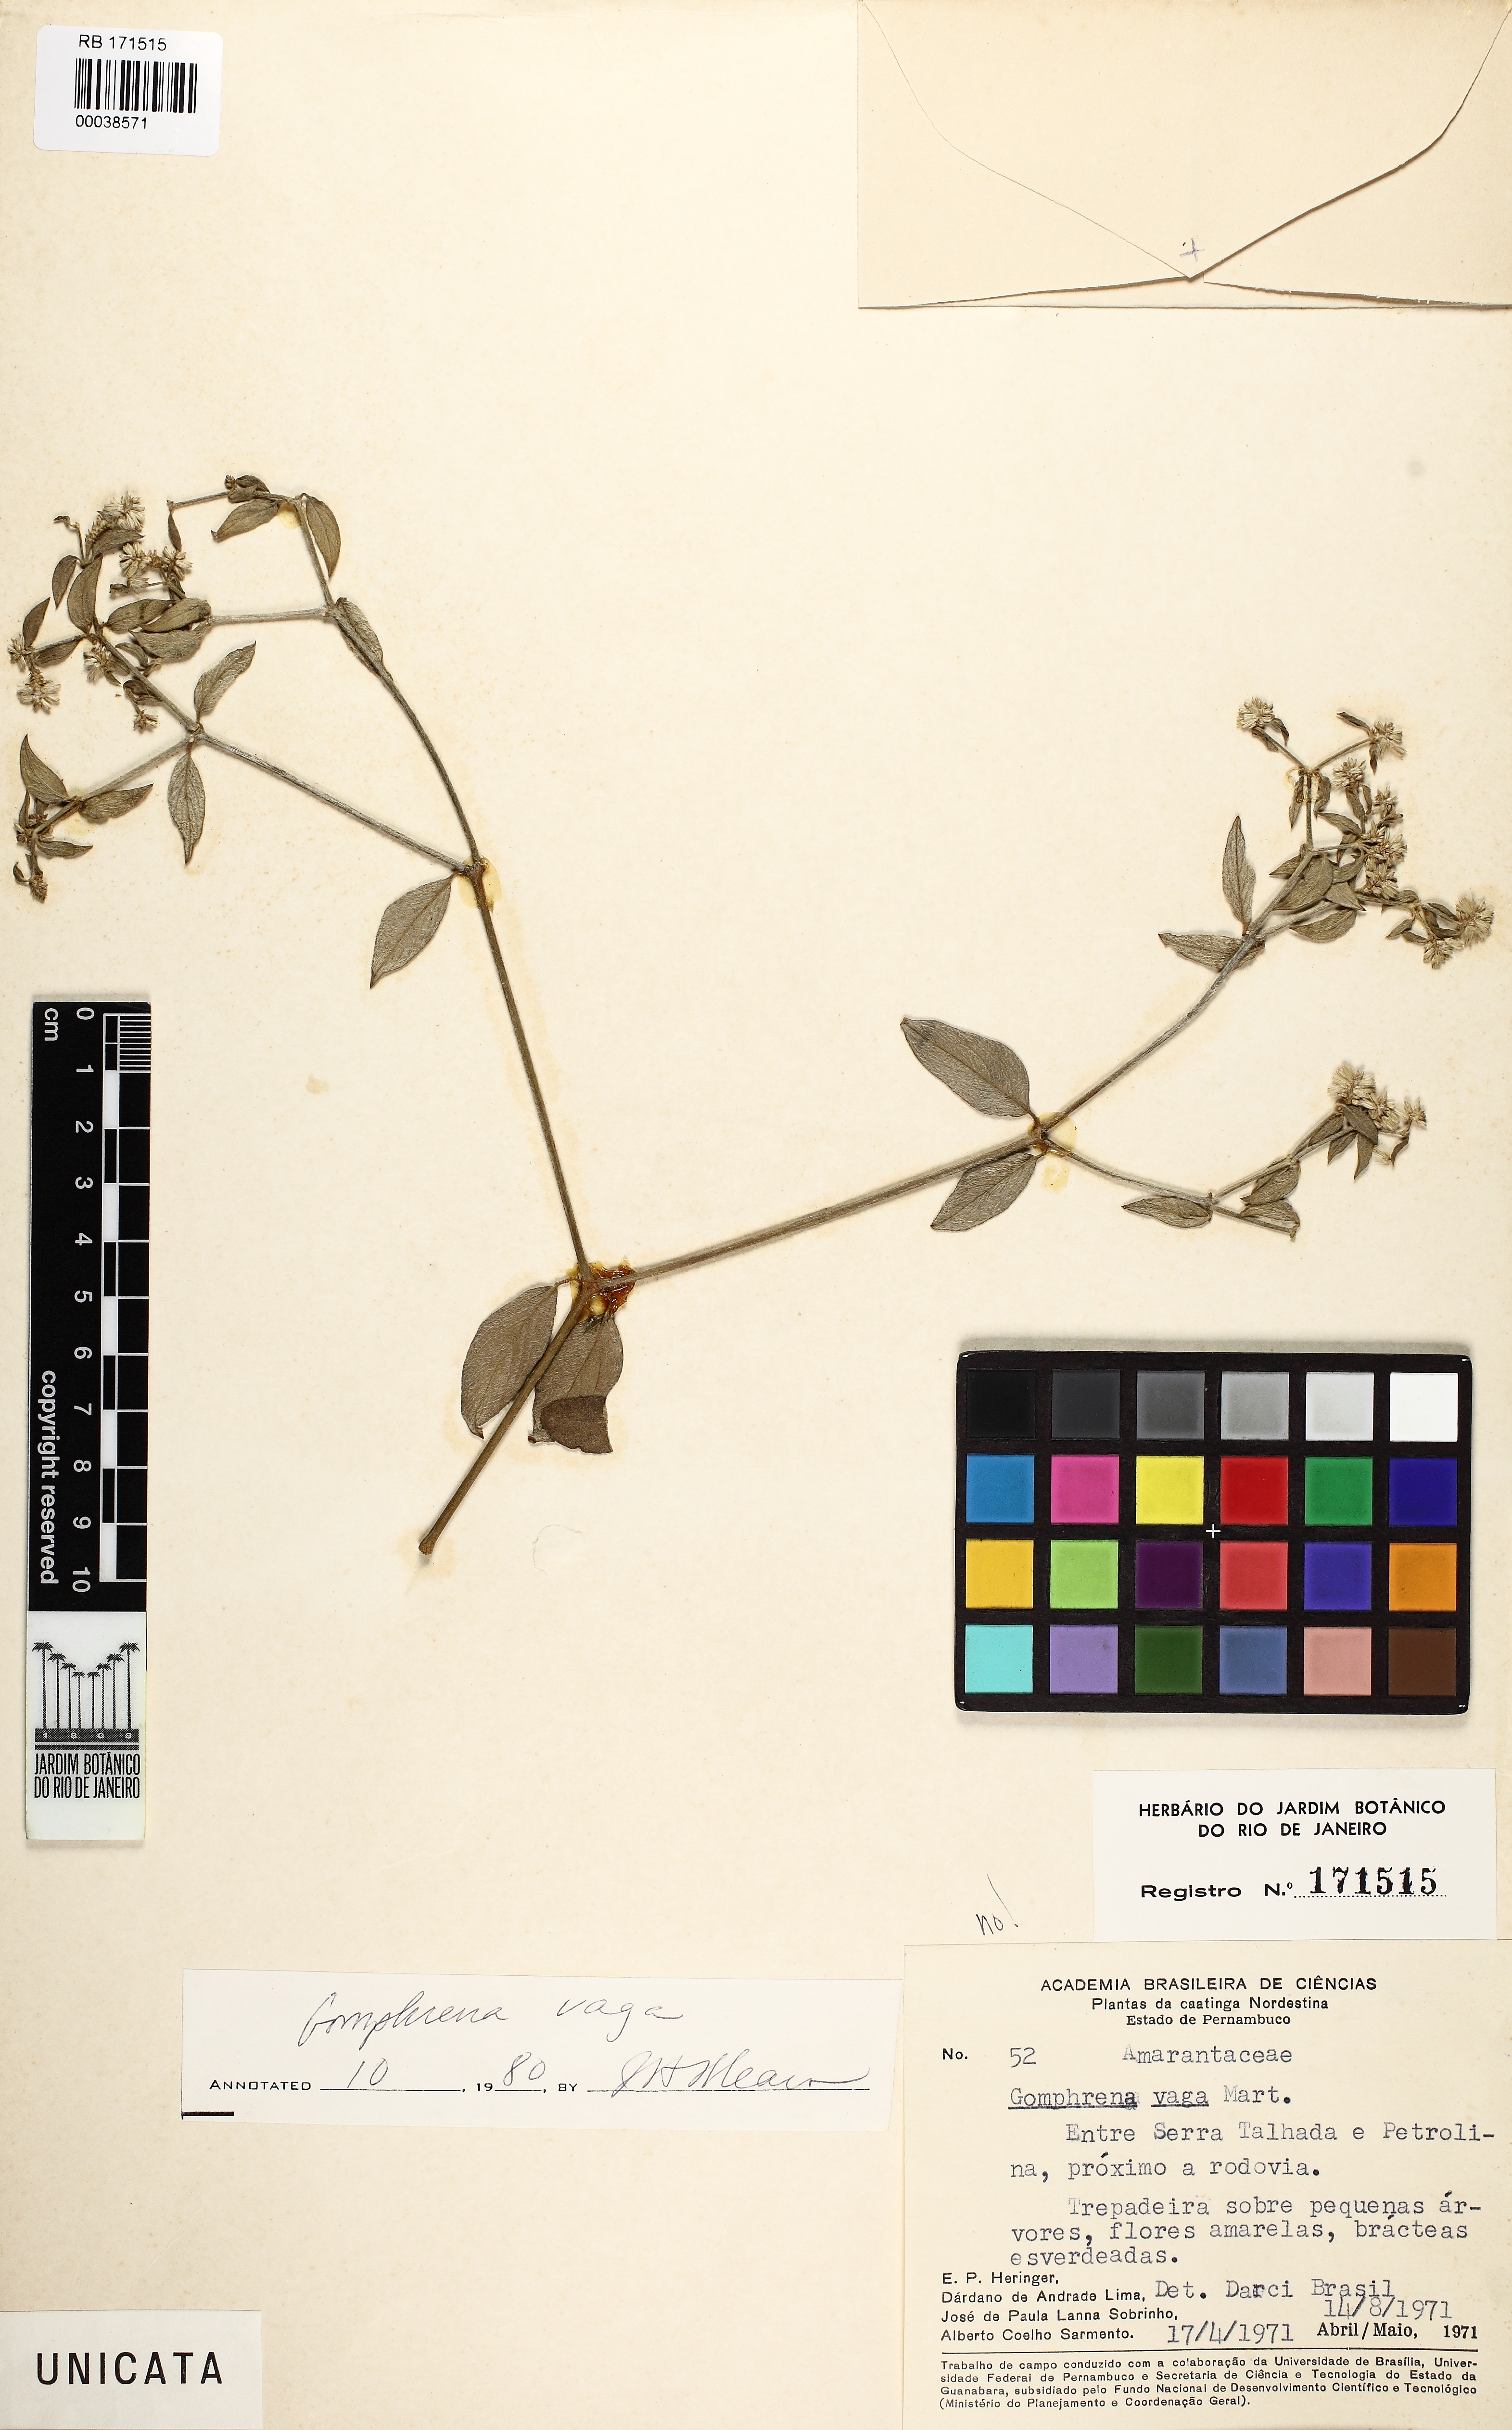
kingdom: Plantae
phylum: Tracheophyta
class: Magnoliopsida
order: Caryophyllales
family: Amaranthaceae
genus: Gomphrena
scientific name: Gomphrena
